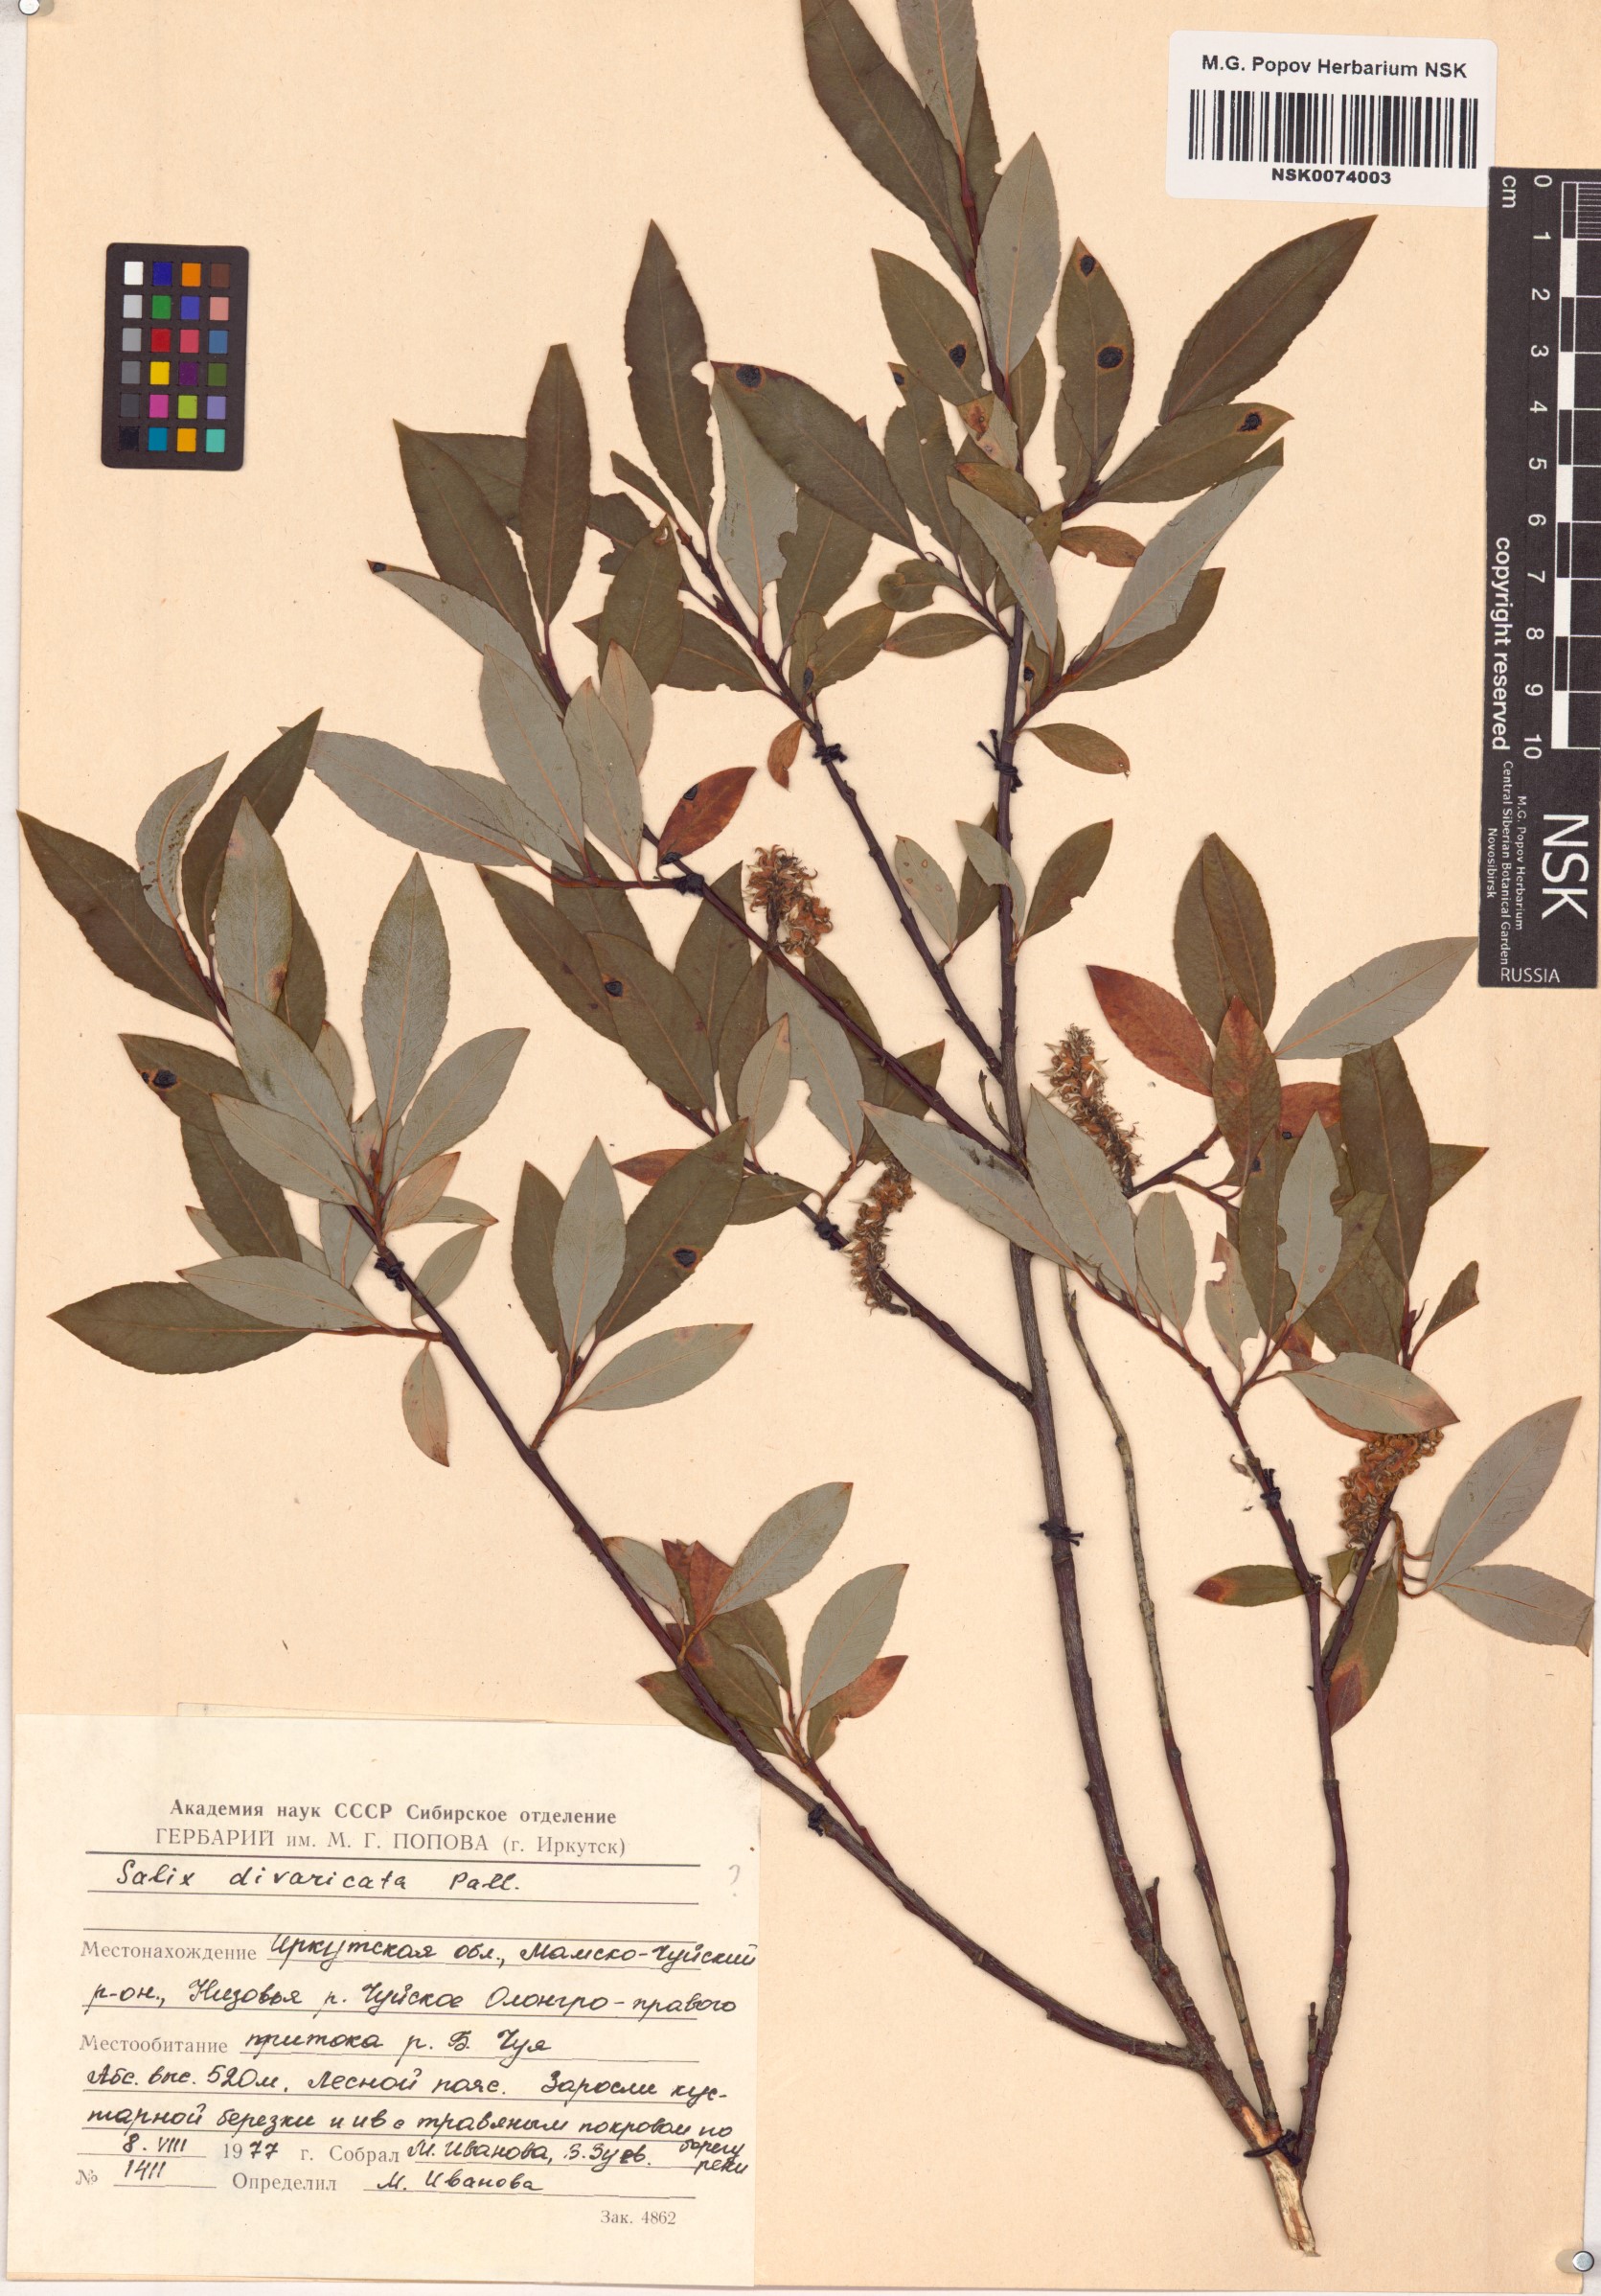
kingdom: Plantae
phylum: Tracheophyta
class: Magnoliopsida
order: Malpighiales
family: Salicaceae
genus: Salix
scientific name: Salix divaricata
